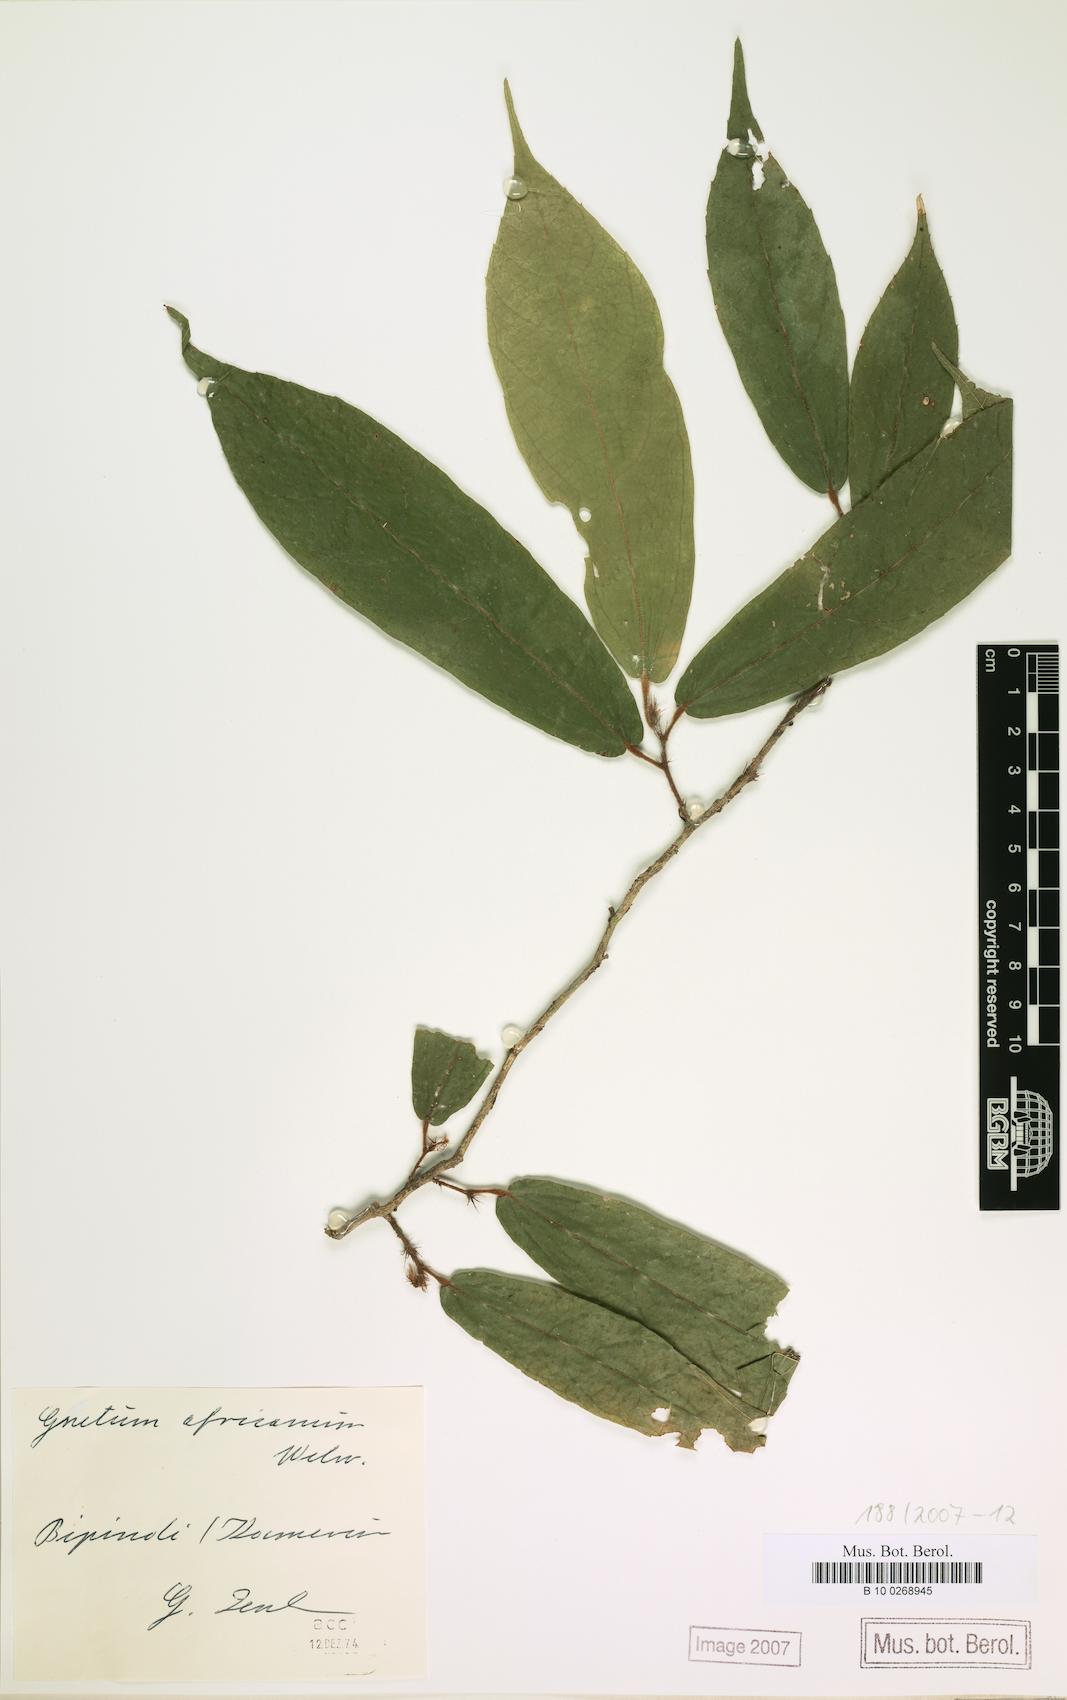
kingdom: Plantae
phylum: Tracheophyta
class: Gnetopsida
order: Gnetales
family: Gnetaceae
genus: Gnetum
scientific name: Gnetum africanum
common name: Eru
